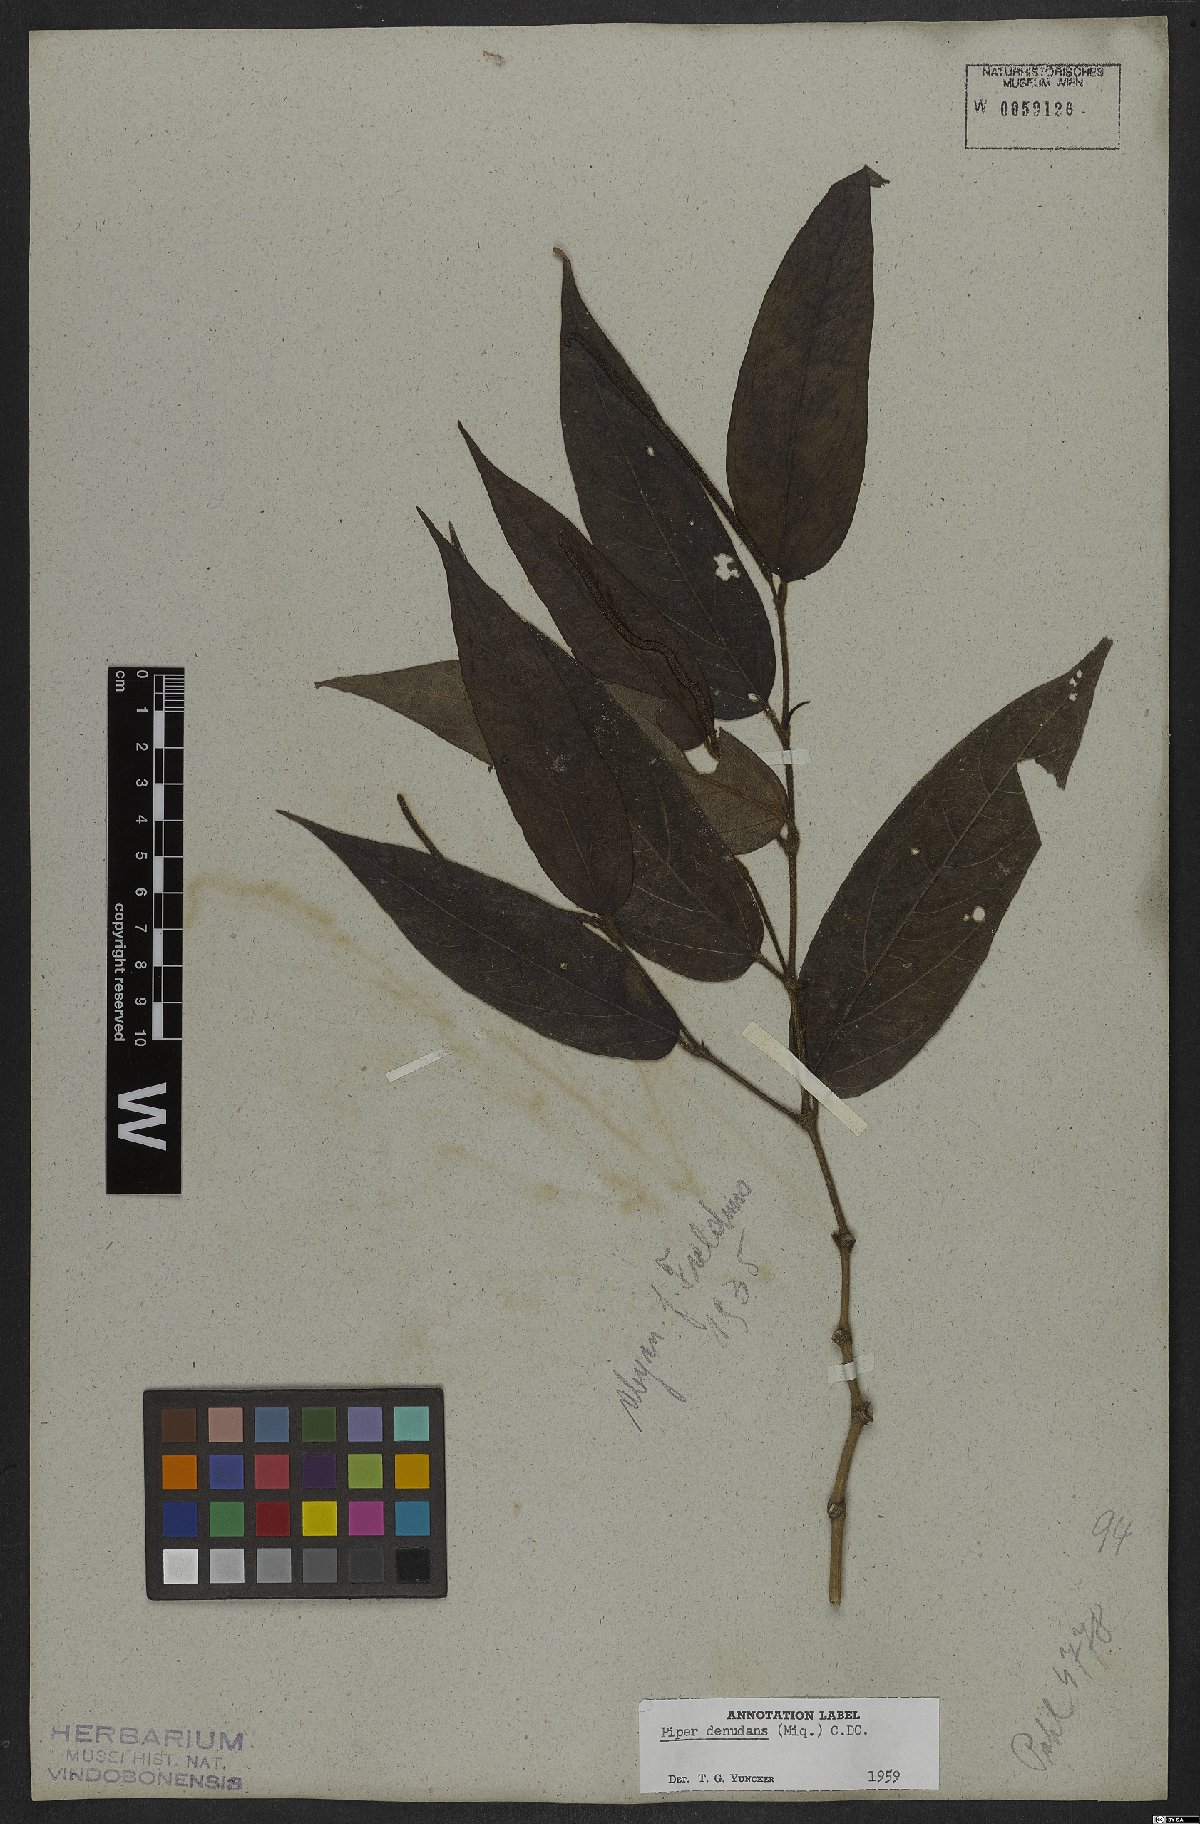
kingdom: Plantae
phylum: Tracheophyta
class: Magnoliopsida
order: Piperales
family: Piperaceae
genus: Piper
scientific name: Piper lepturum
